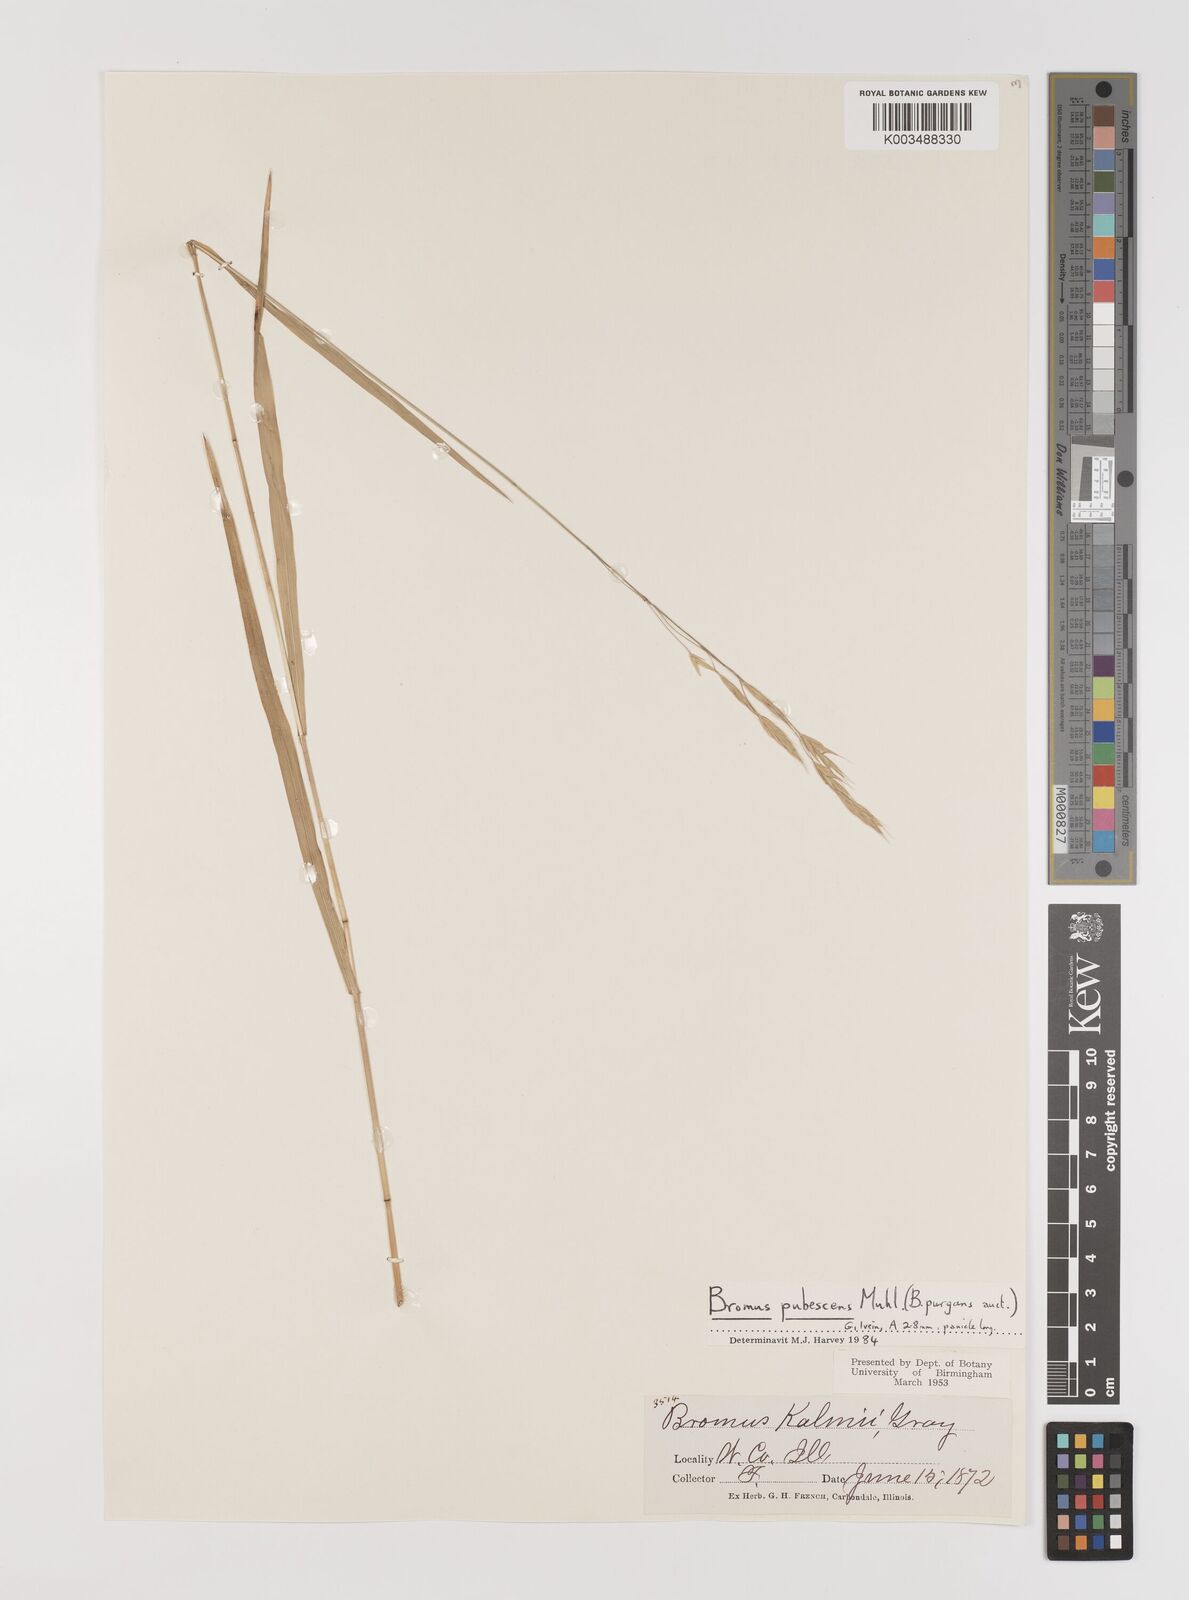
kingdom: Plantae
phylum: Tracheophyta
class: Liliopsida
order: Poales
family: Poaceae
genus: Bromus
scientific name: Bromus pubescens
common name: Hairy wood brome grass
